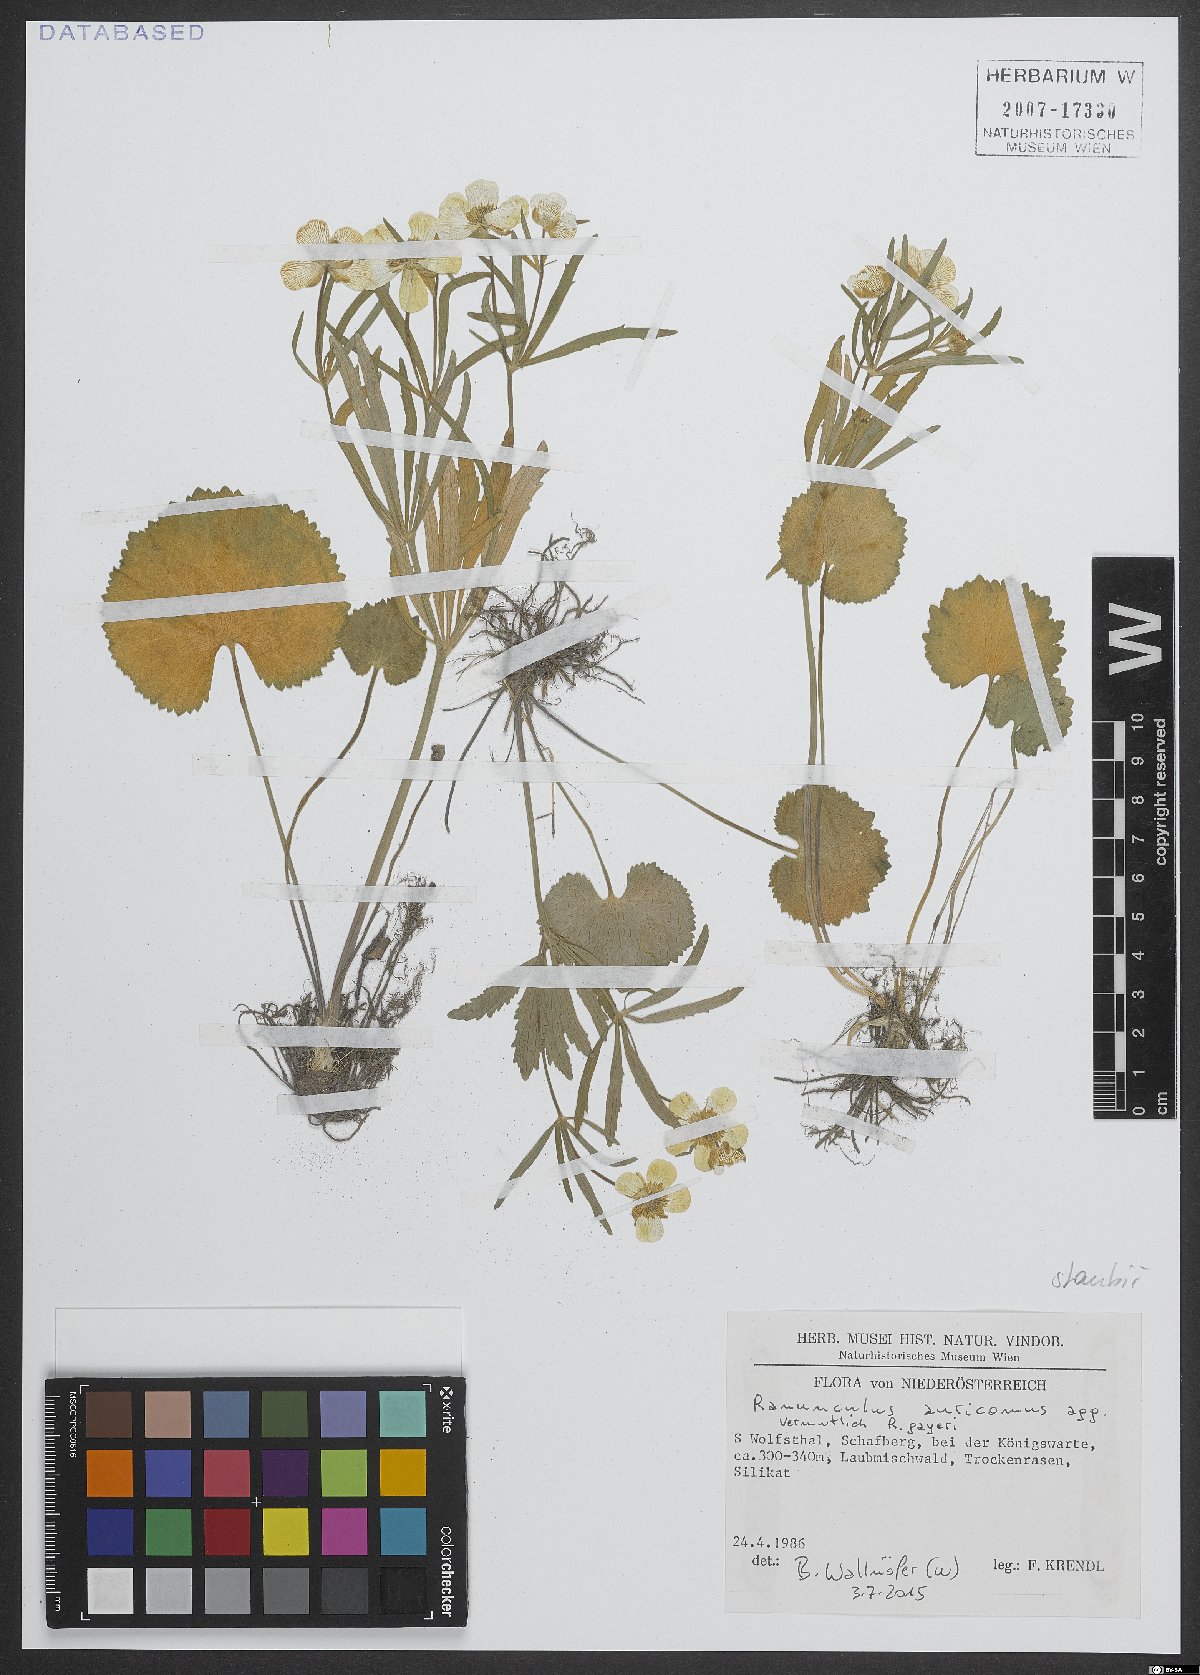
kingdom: Plantae
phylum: Tracheophyta
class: Magnoliopsida
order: Ranunculales
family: Ranunculaceae
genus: Ranunculus
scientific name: Ranunculus auricomus
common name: Goldilocks buttercup
